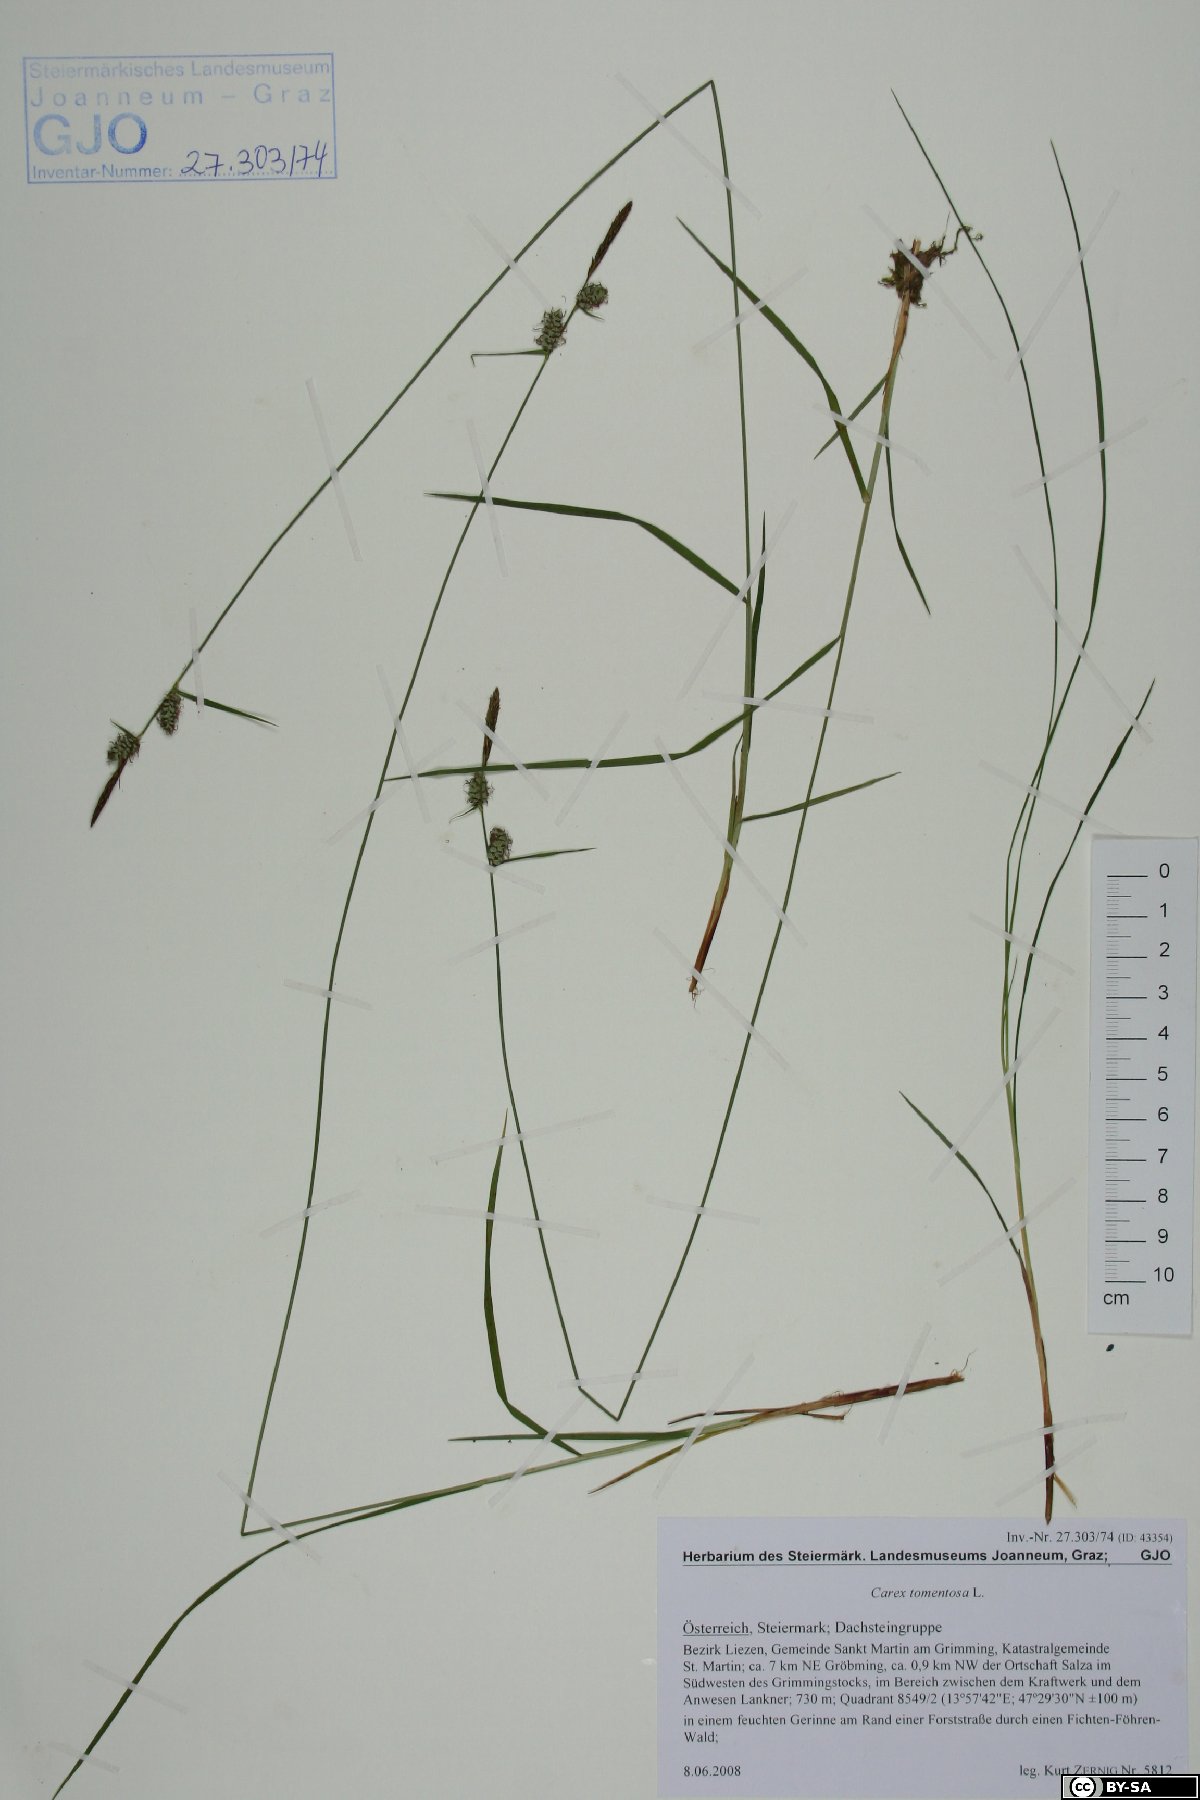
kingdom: Plantae
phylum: Tracheophyta
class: Liliopsida
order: Poales
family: Cyperaceae
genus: Carex
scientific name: Carex tomentosa
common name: Downy-fruited sedge
